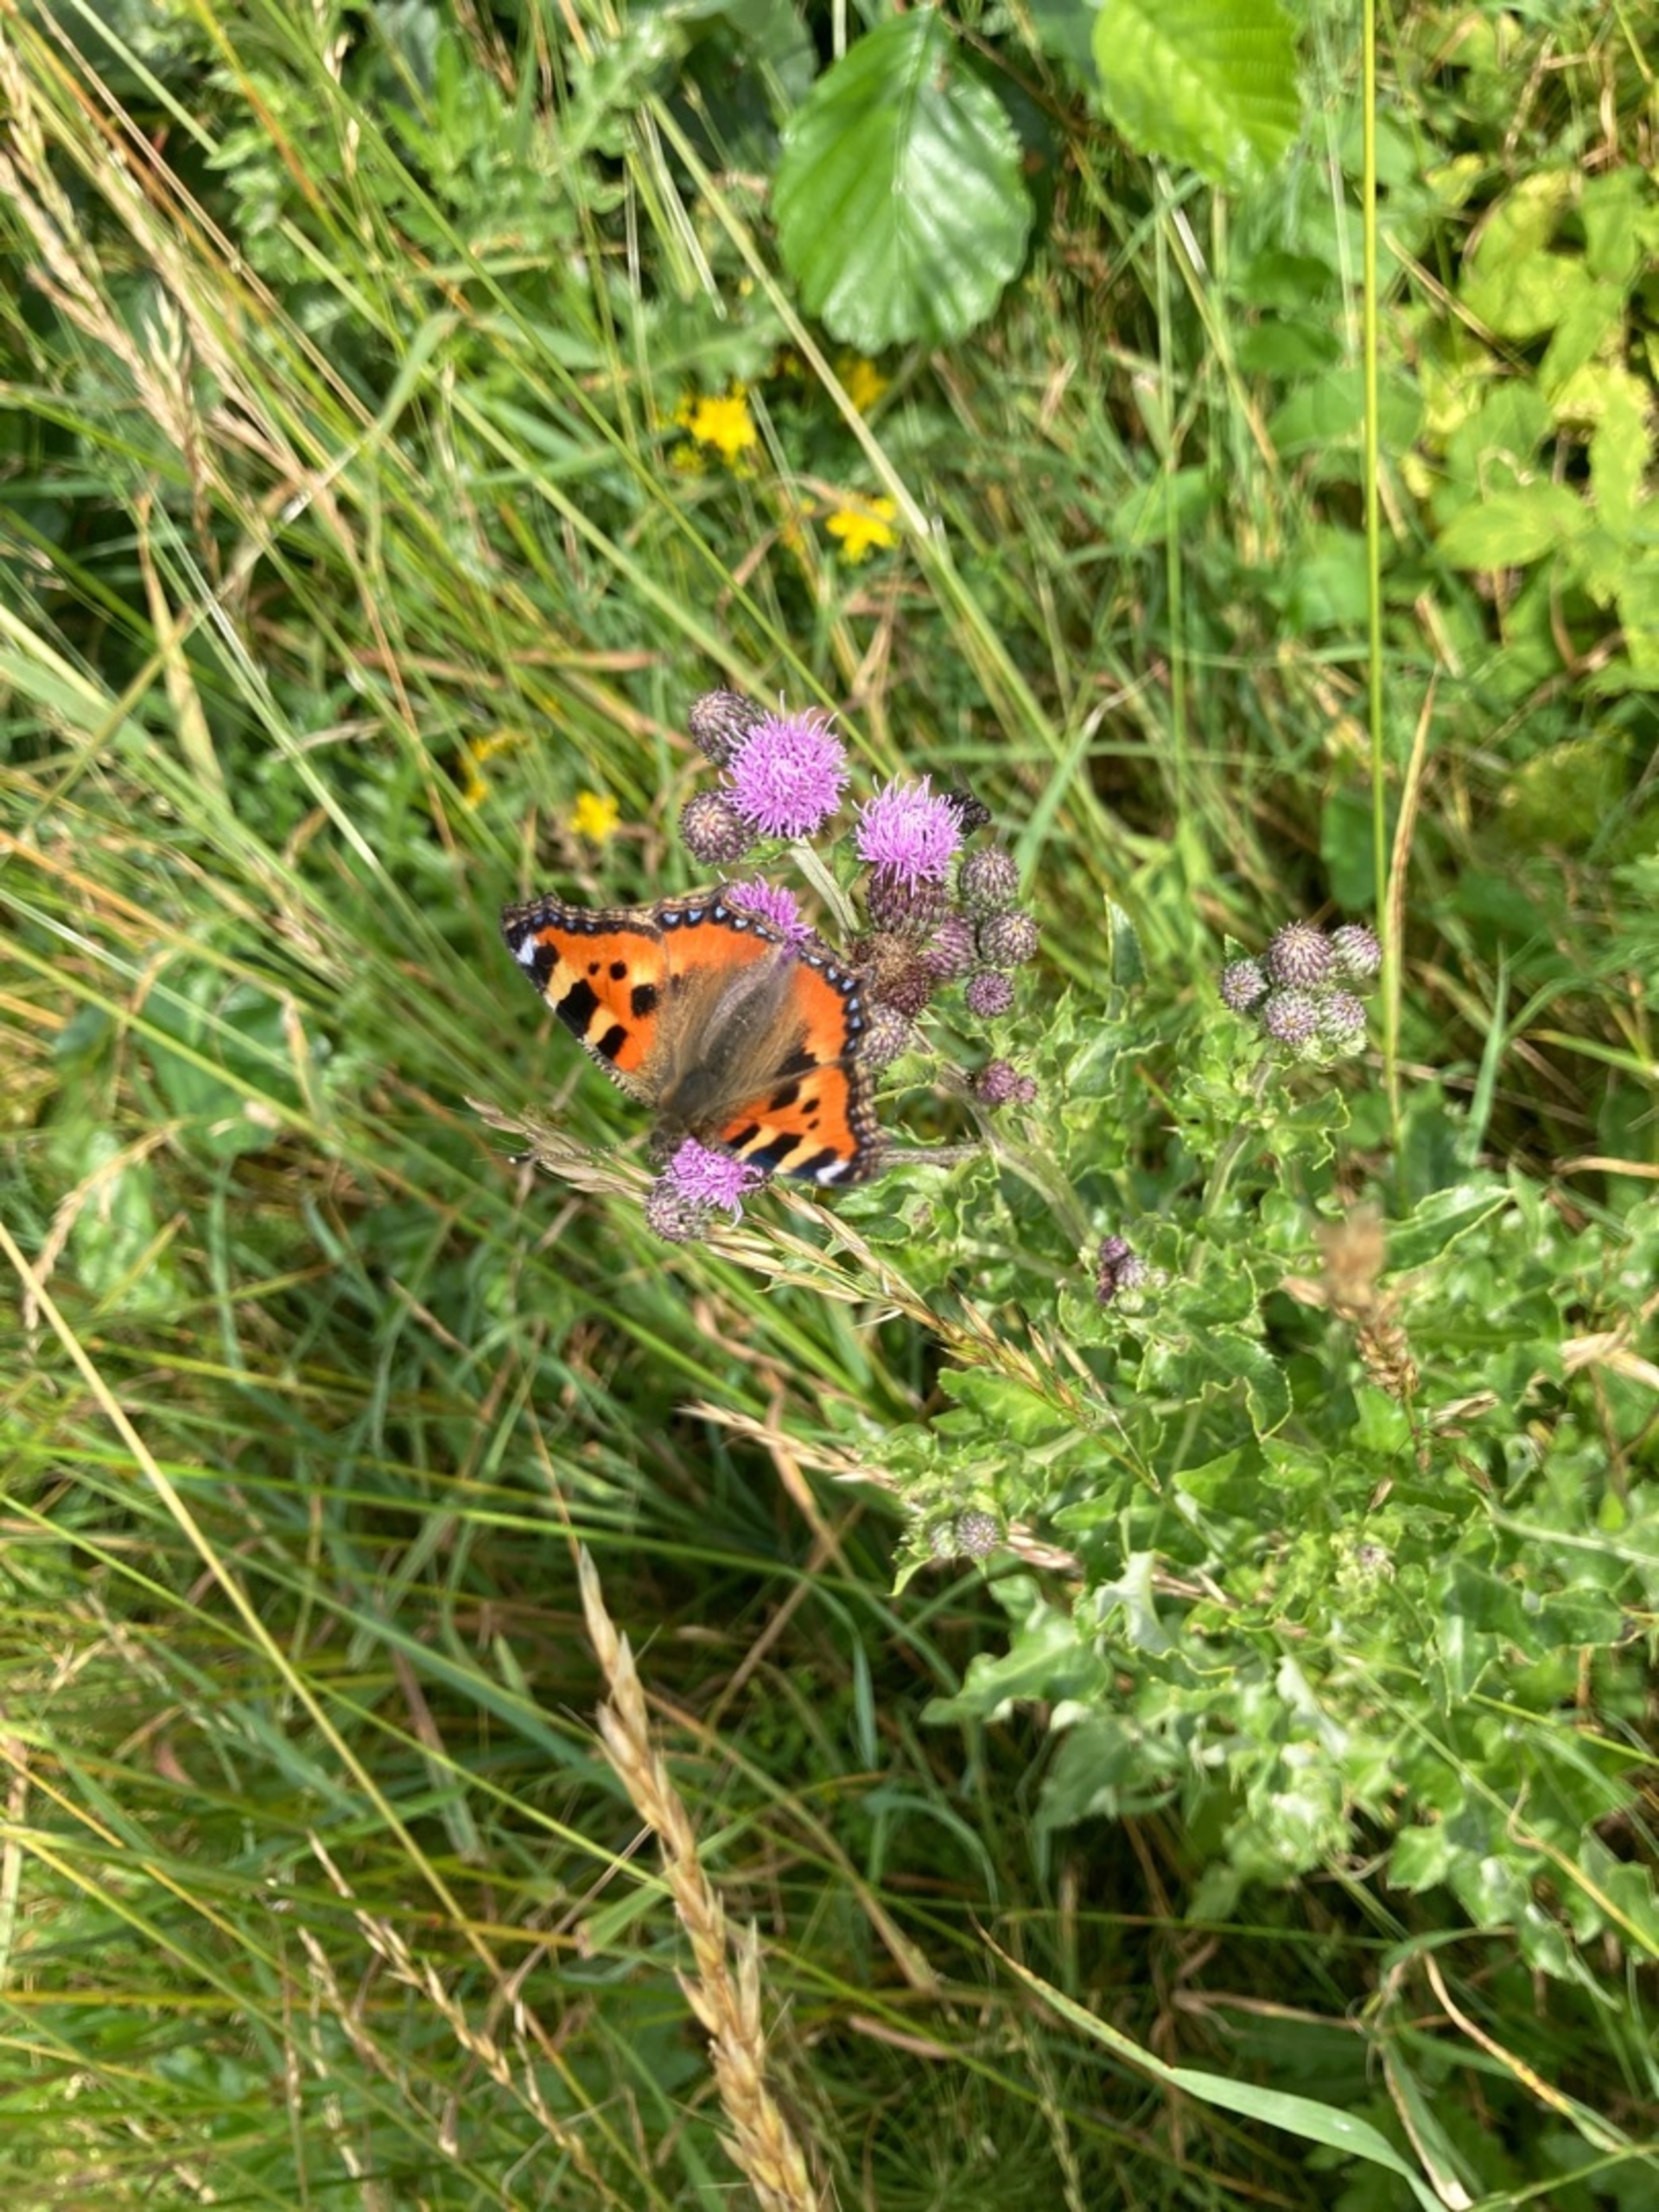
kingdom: Animalia
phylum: Arthropoda
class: Insecta
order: Lepidoptera
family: Nymphalidae
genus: Aglais
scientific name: Aglais urticae
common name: Nældens takvinge
